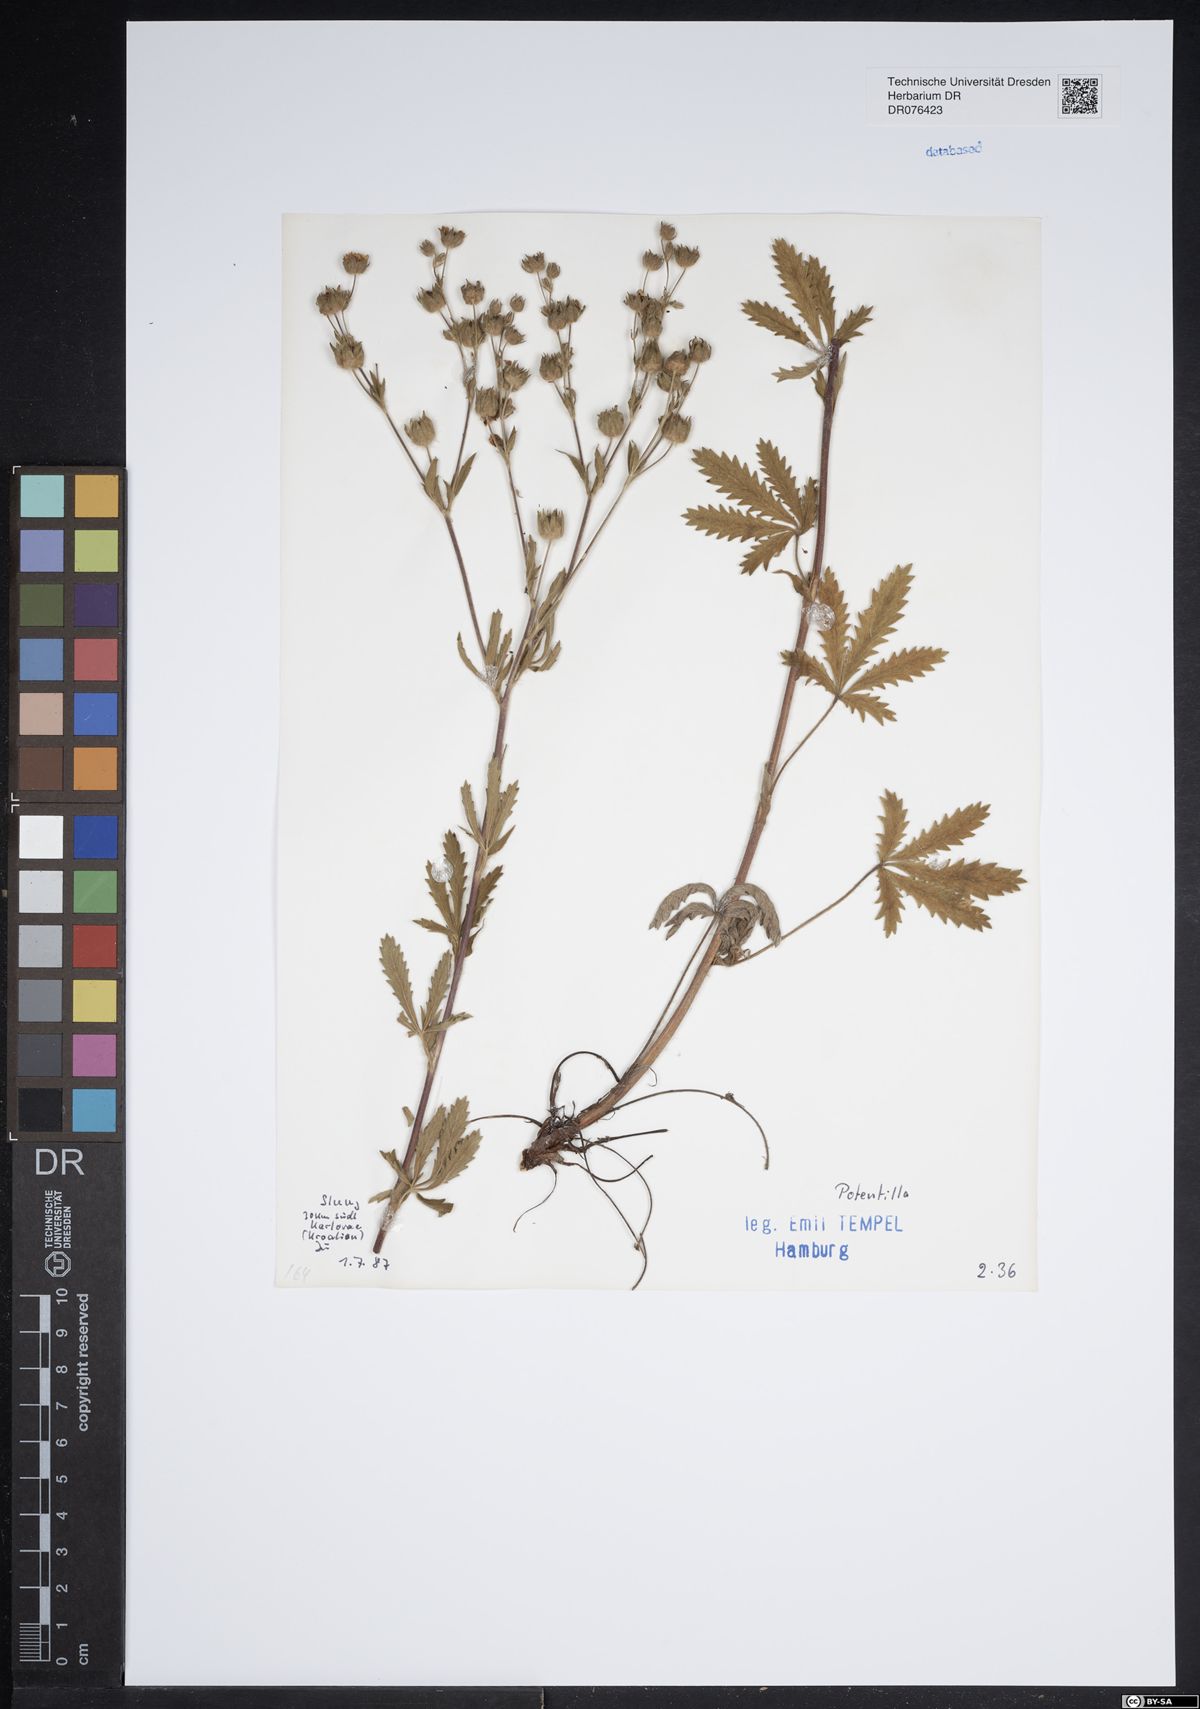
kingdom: Plantae
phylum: Tracheophyta
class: Magnoliopsida
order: Rosales
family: Rosaceae
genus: Potentilla
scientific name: Potentilla
